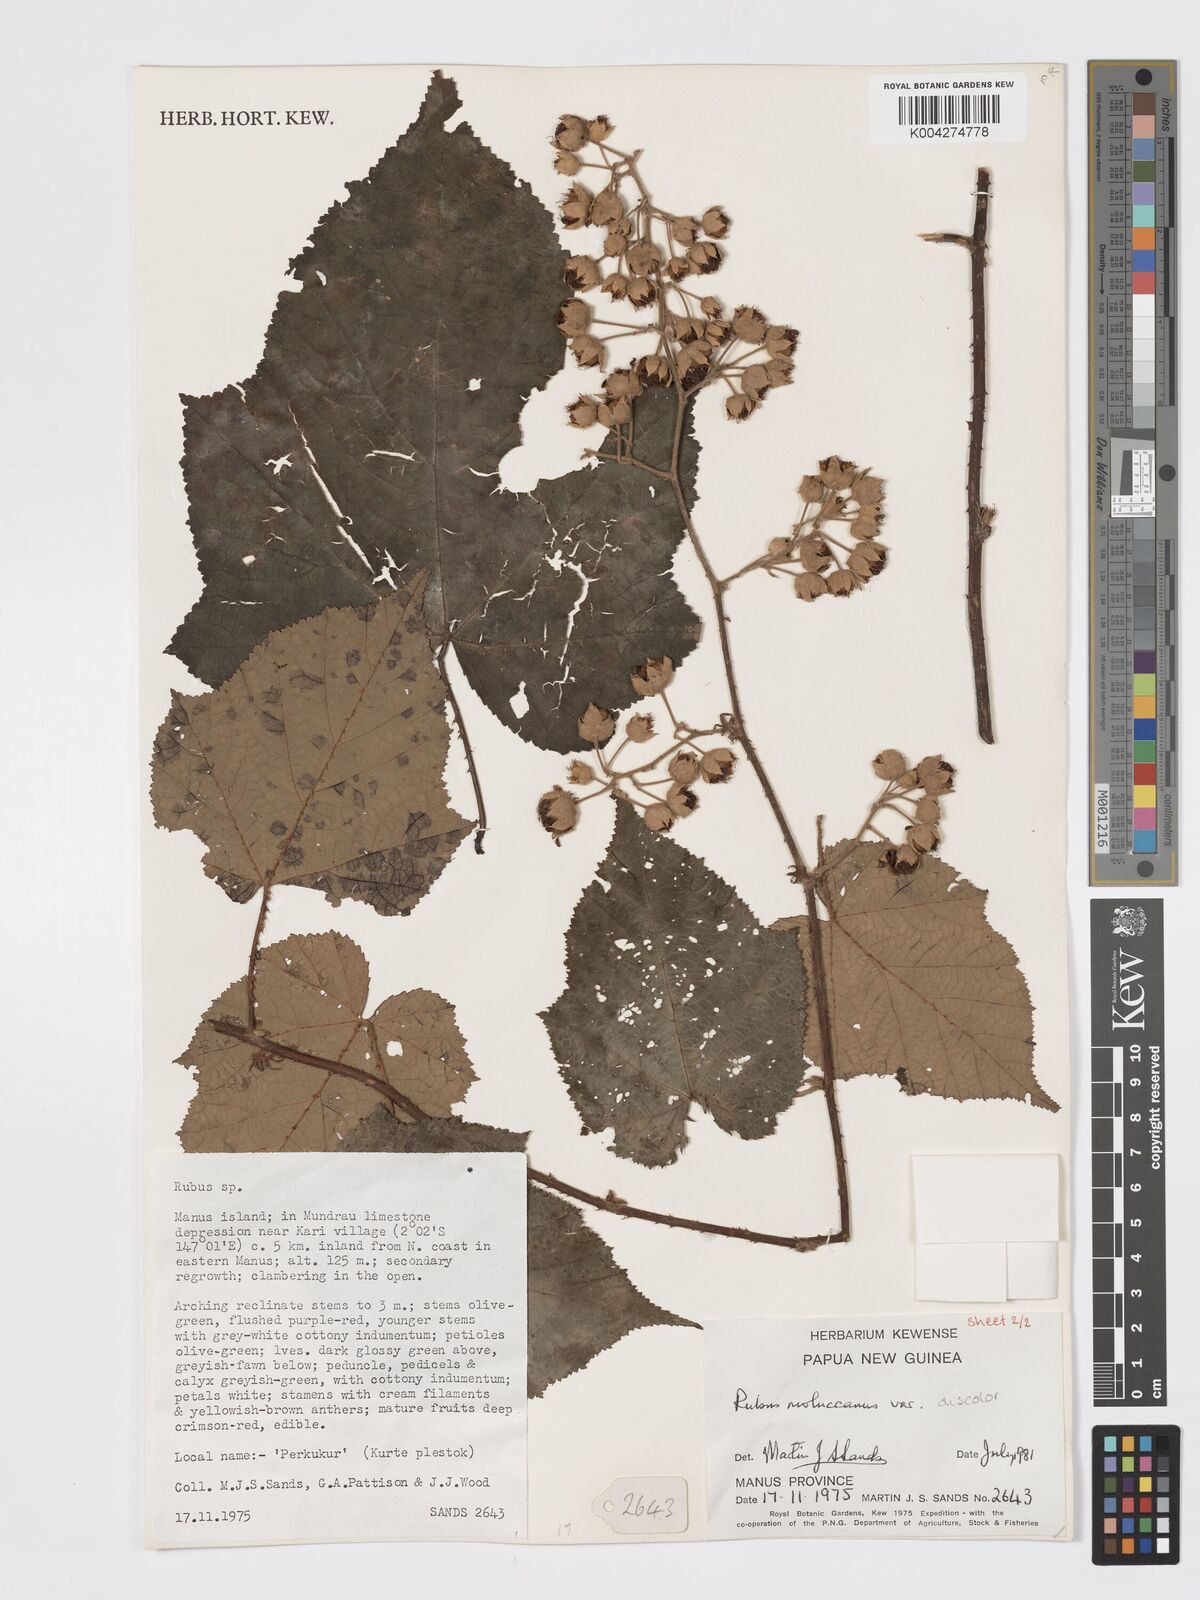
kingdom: Plantae
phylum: Tracheophyta
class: Magnoliopsida
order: Rosales
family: Rosaceae
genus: Rubus
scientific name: Rubus moluccanus
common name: Wild raspberry
